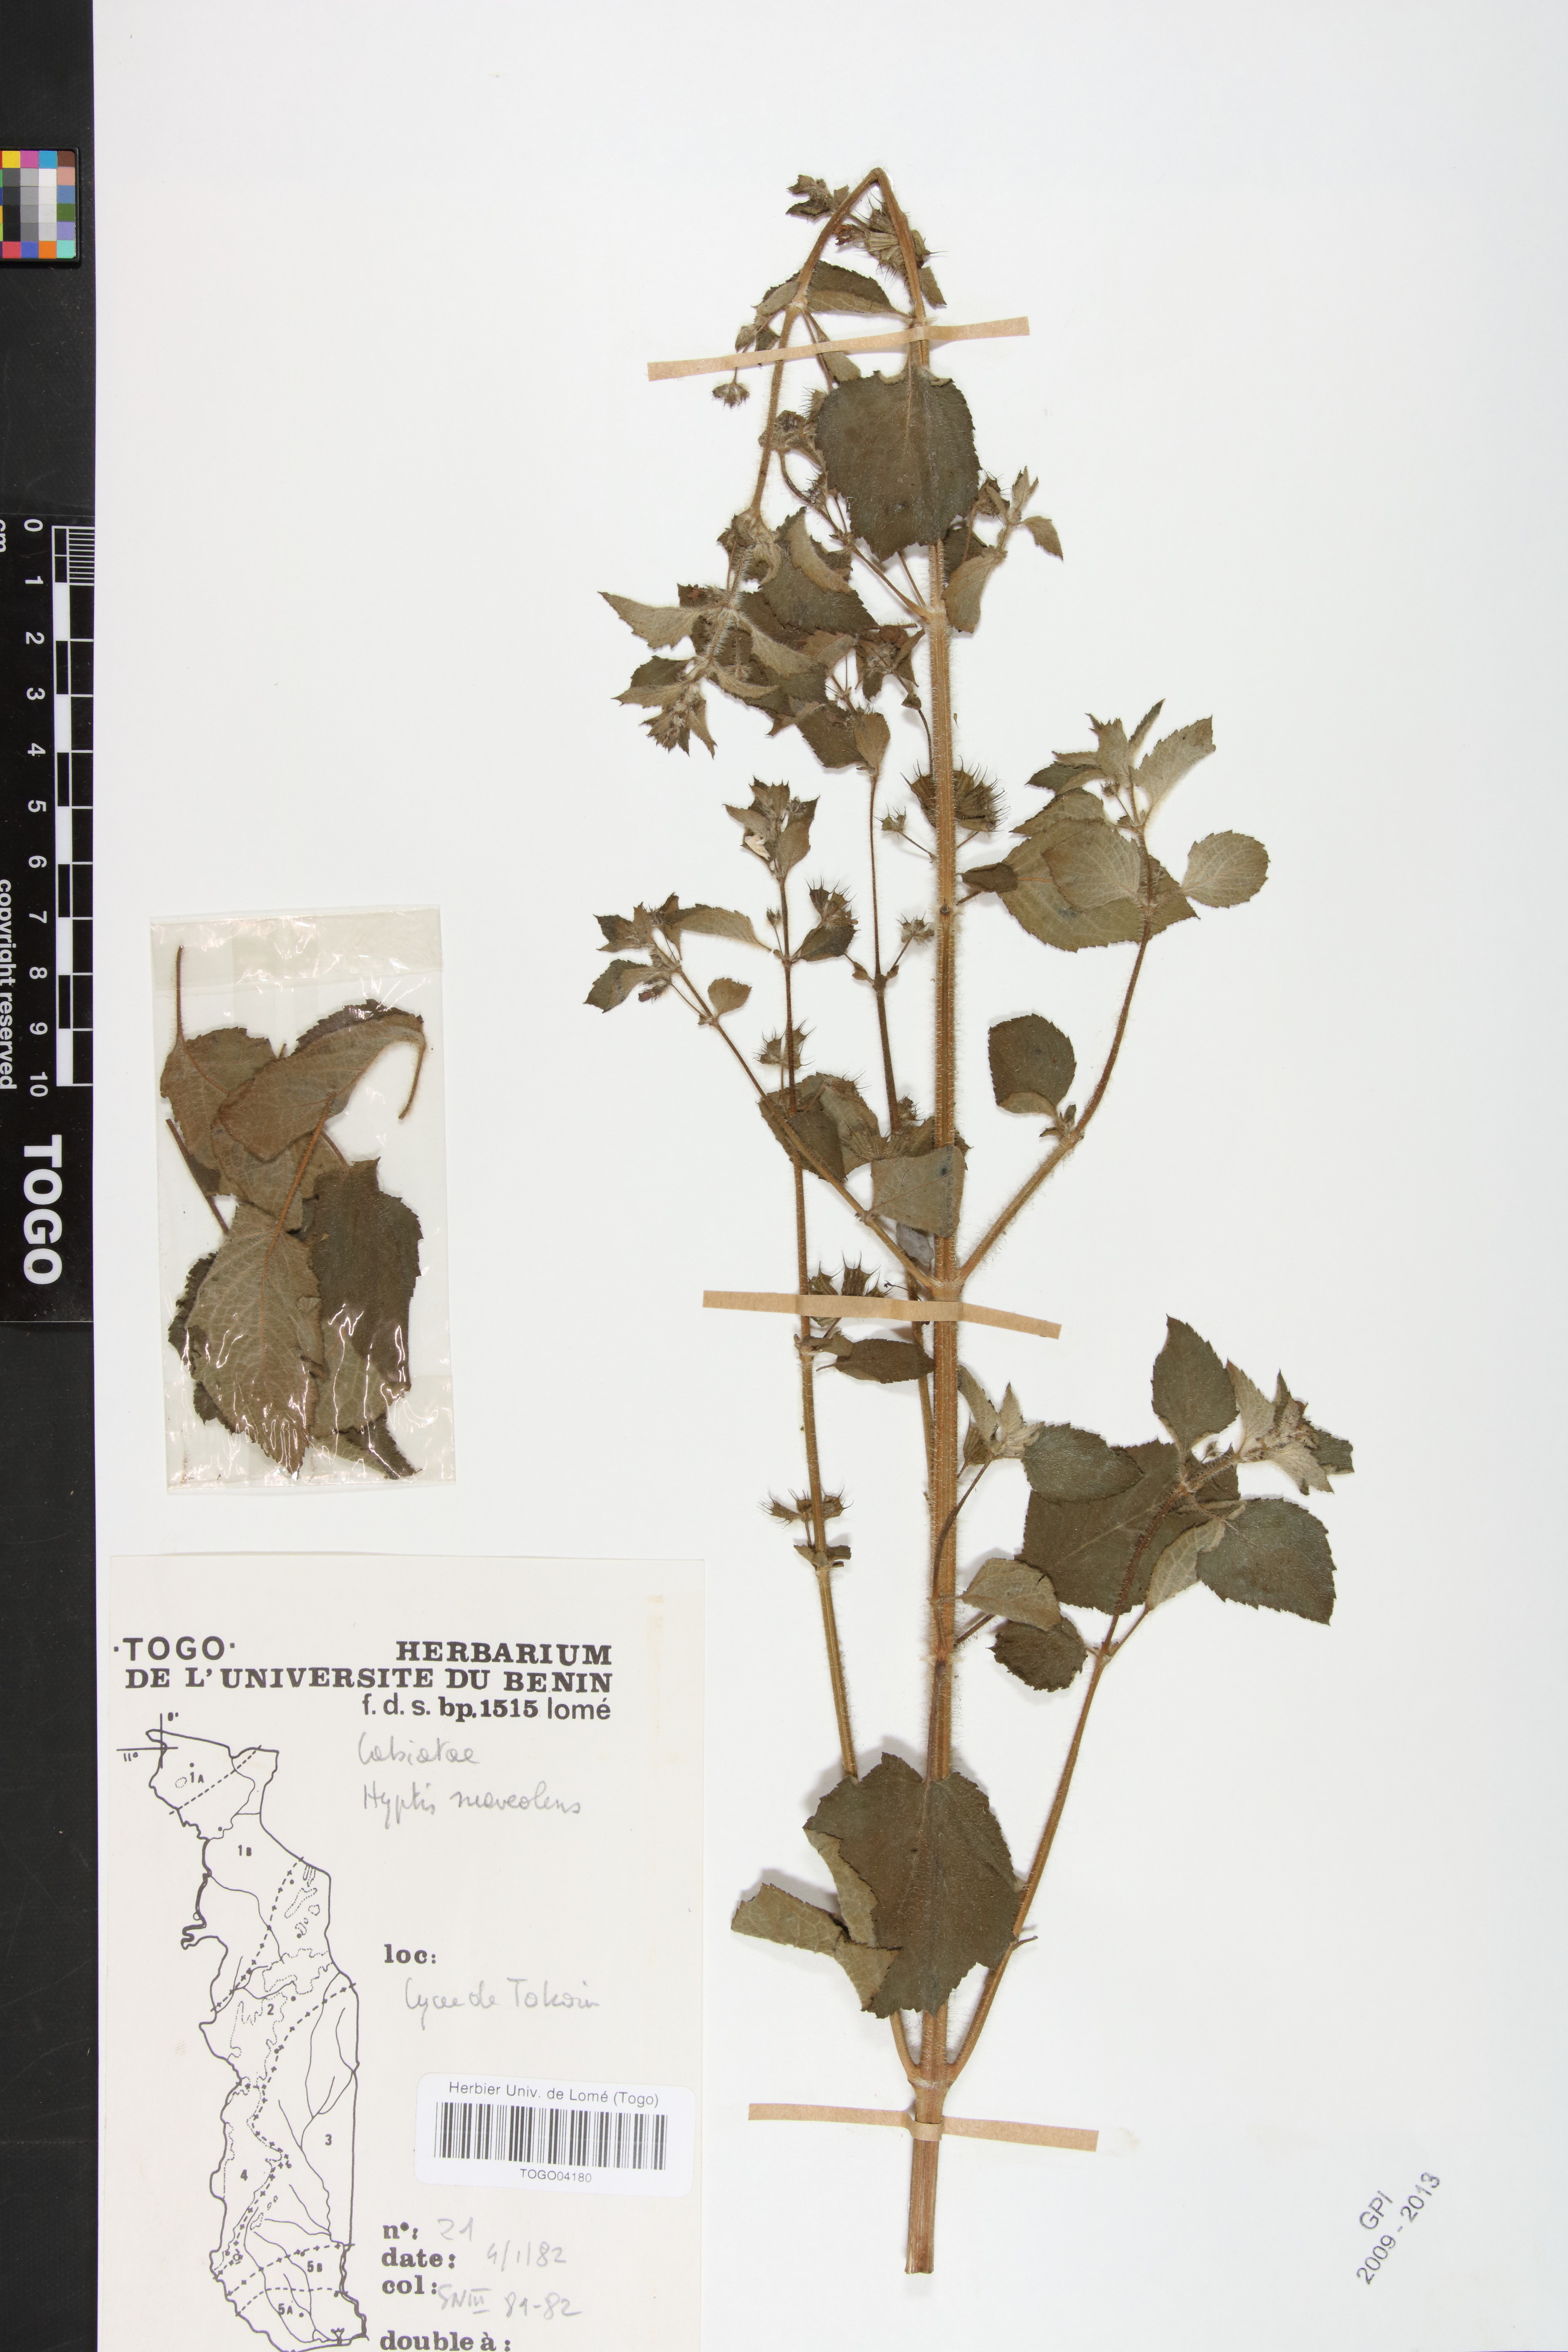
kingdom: Plantae
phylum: Tracheophyta
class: Magnoliopsida
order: Lamiales
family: Lamiaceae
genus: Mesosphaerum
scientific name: Mesosphaerum suaveolens
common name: Pignut
